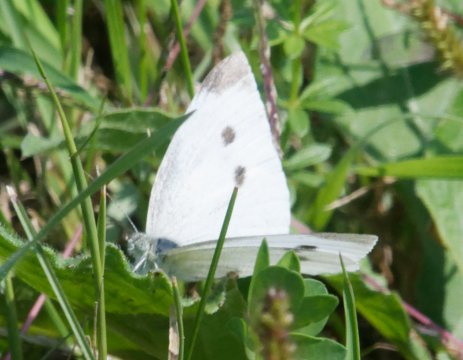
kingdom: Animalia
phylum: Arthropoda
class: Insecta
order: Lepidoptera
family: Pieridae
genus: Pieris
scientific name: Pieris rapae
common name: Cabbage White
